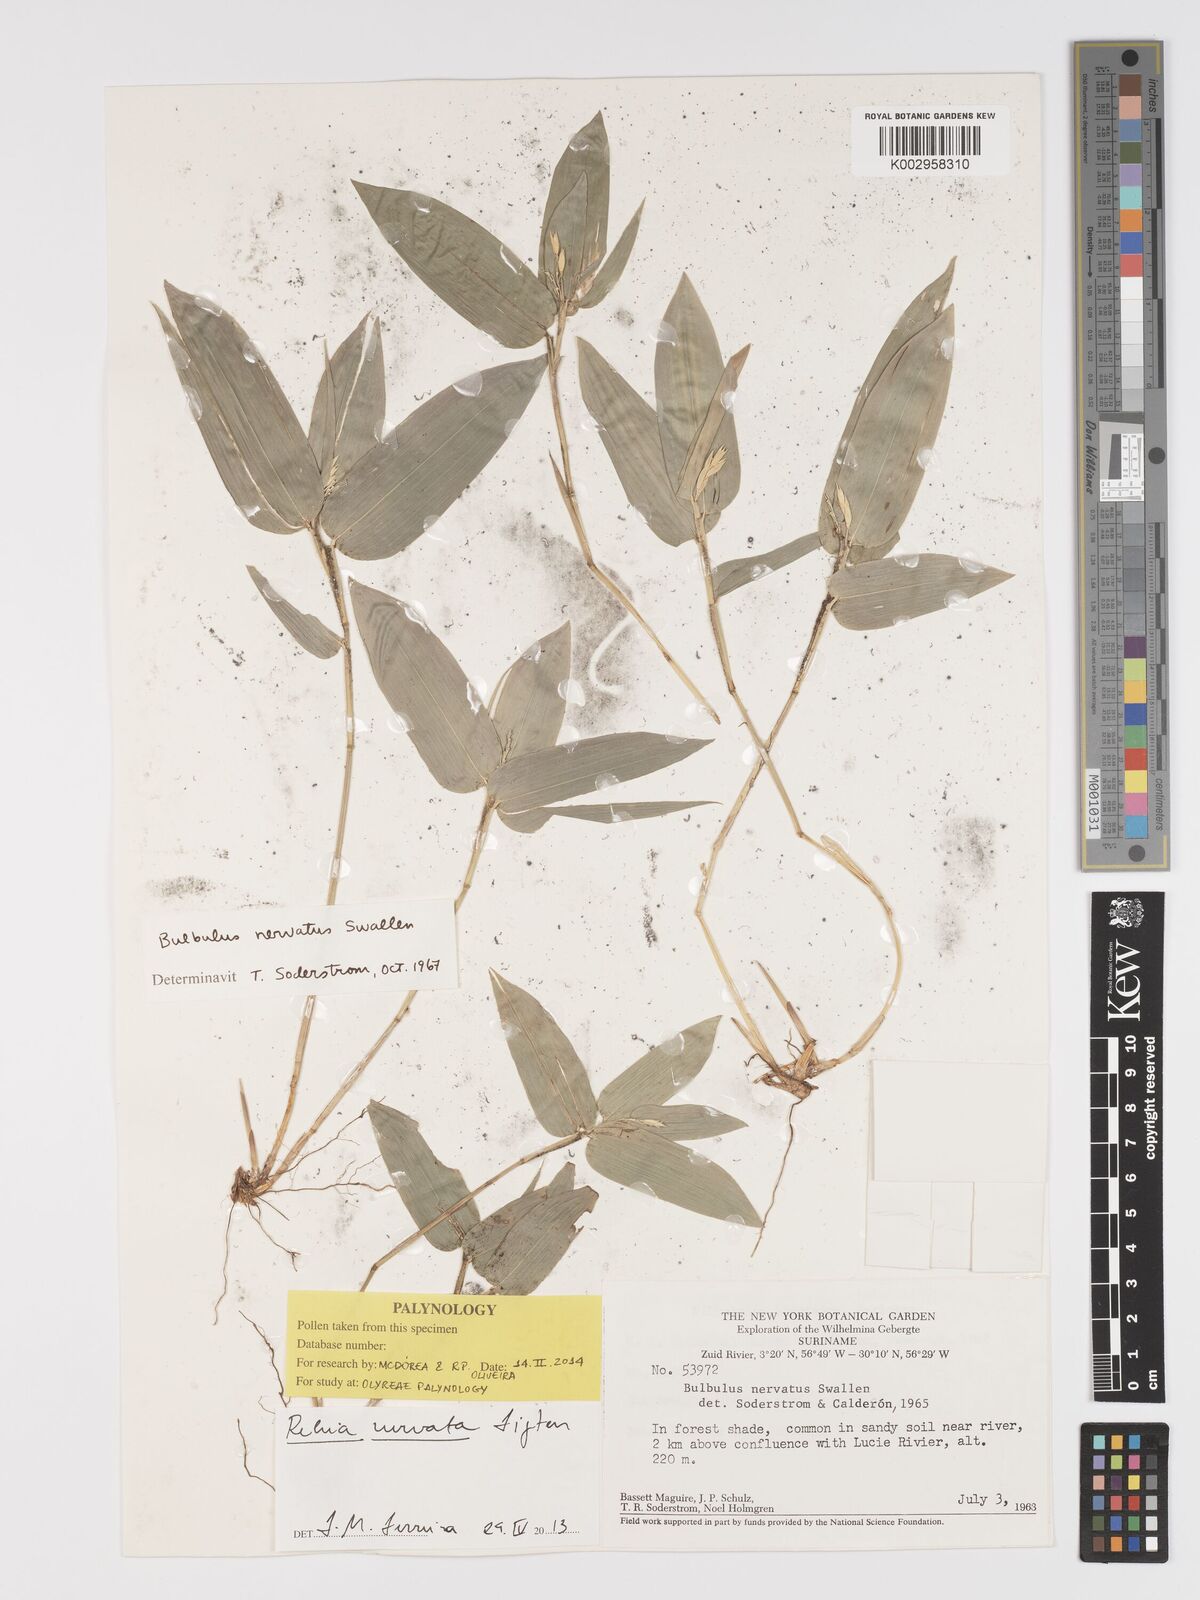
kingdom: Plantae
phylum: Tracheophyta
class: Liliopsida
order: Poales
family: Poaceae
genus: Rehia
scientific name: Rehia nervata
